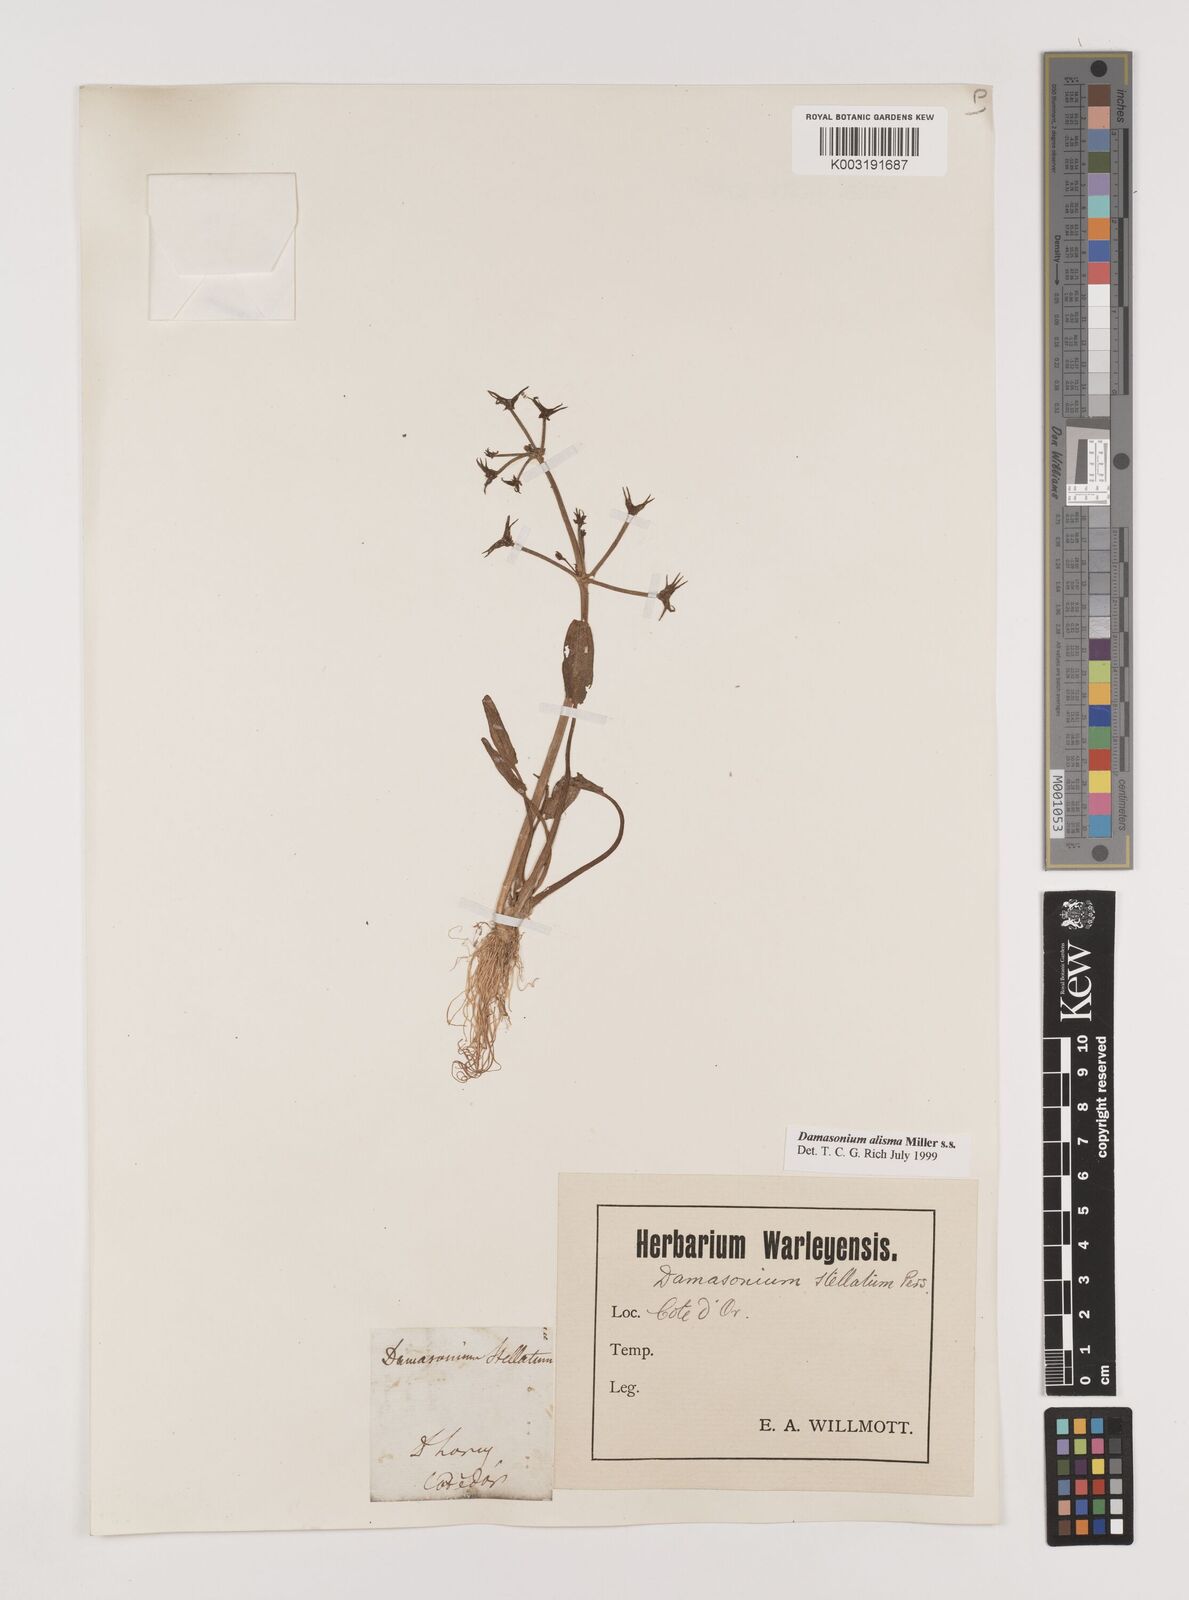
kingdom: Plantae
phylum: Tracheophyta
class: Liliopsida
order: Alismatales
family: Alismataceae
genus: Damasonium
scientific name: Damasonium alisma
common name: Starfruit
